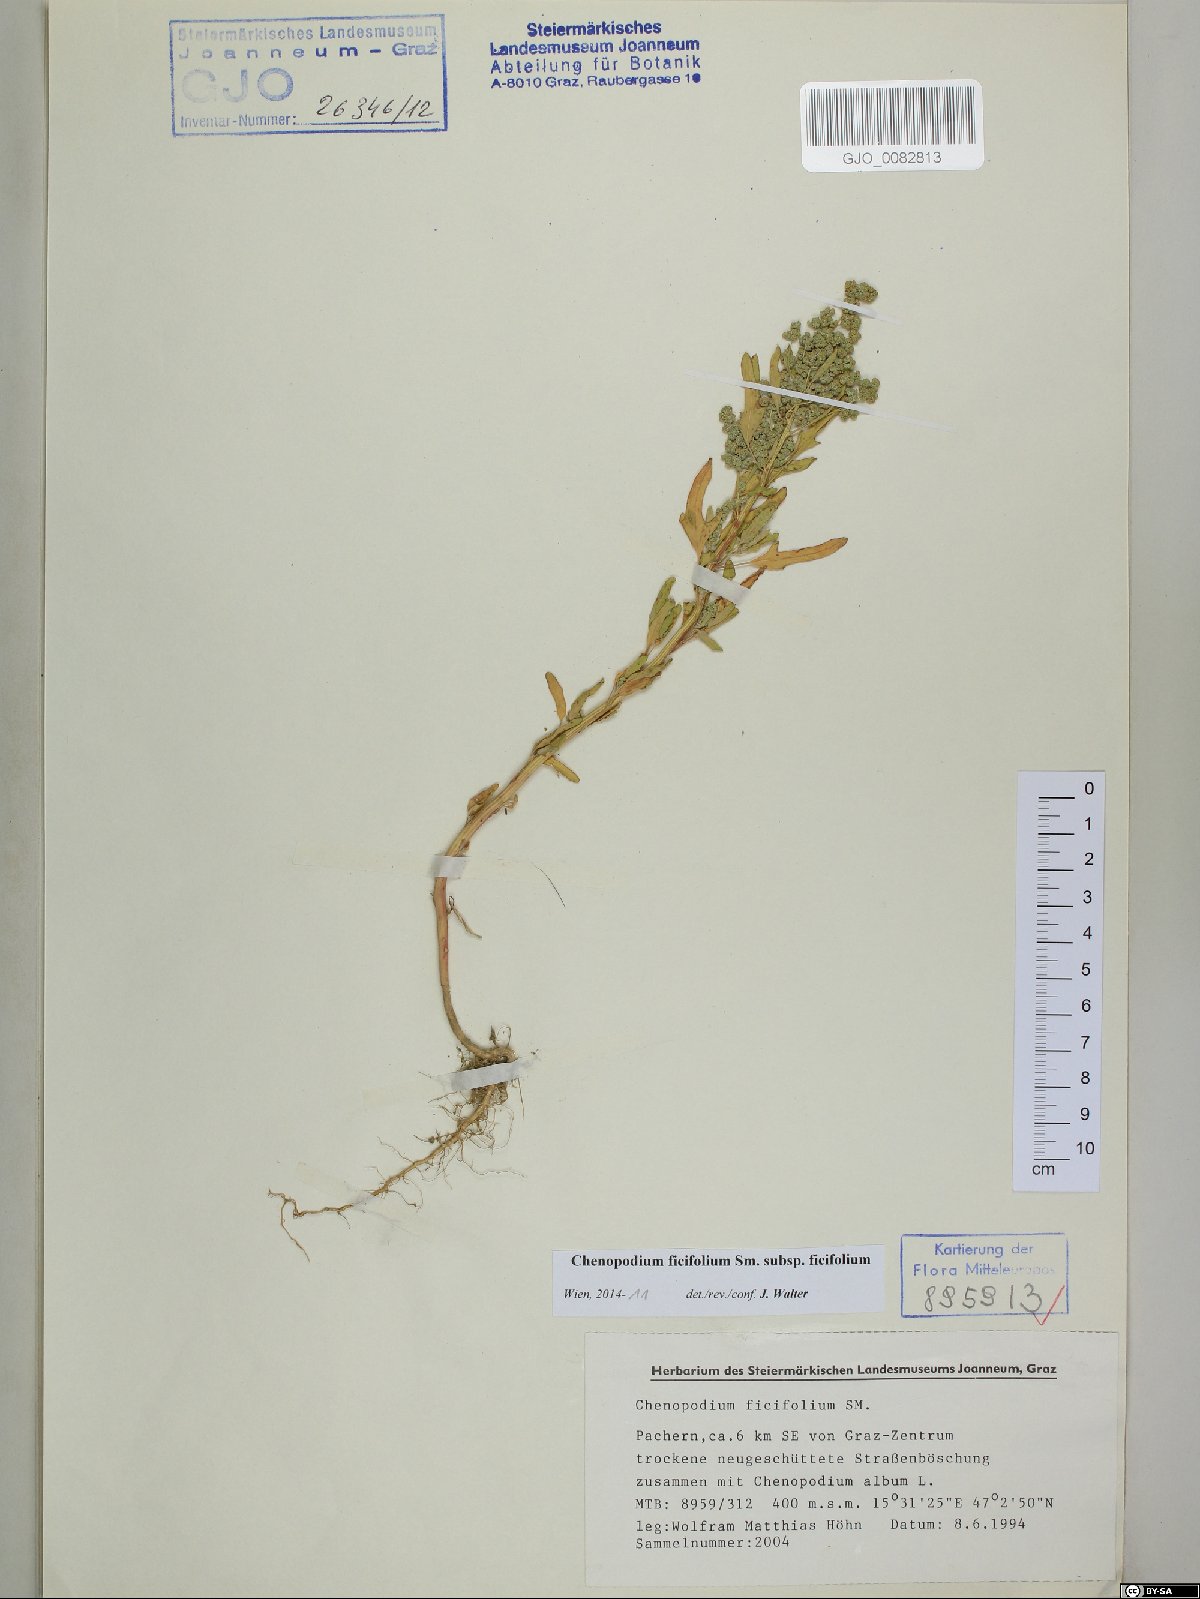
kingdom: Plantae
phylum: Tracheophyta
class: Magnoliopsida
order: Caryophyllales
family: Amaranthaceae
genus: Chenopodium
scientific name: Chenopodium ficifolium
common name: Fig-leaved goosefoot
